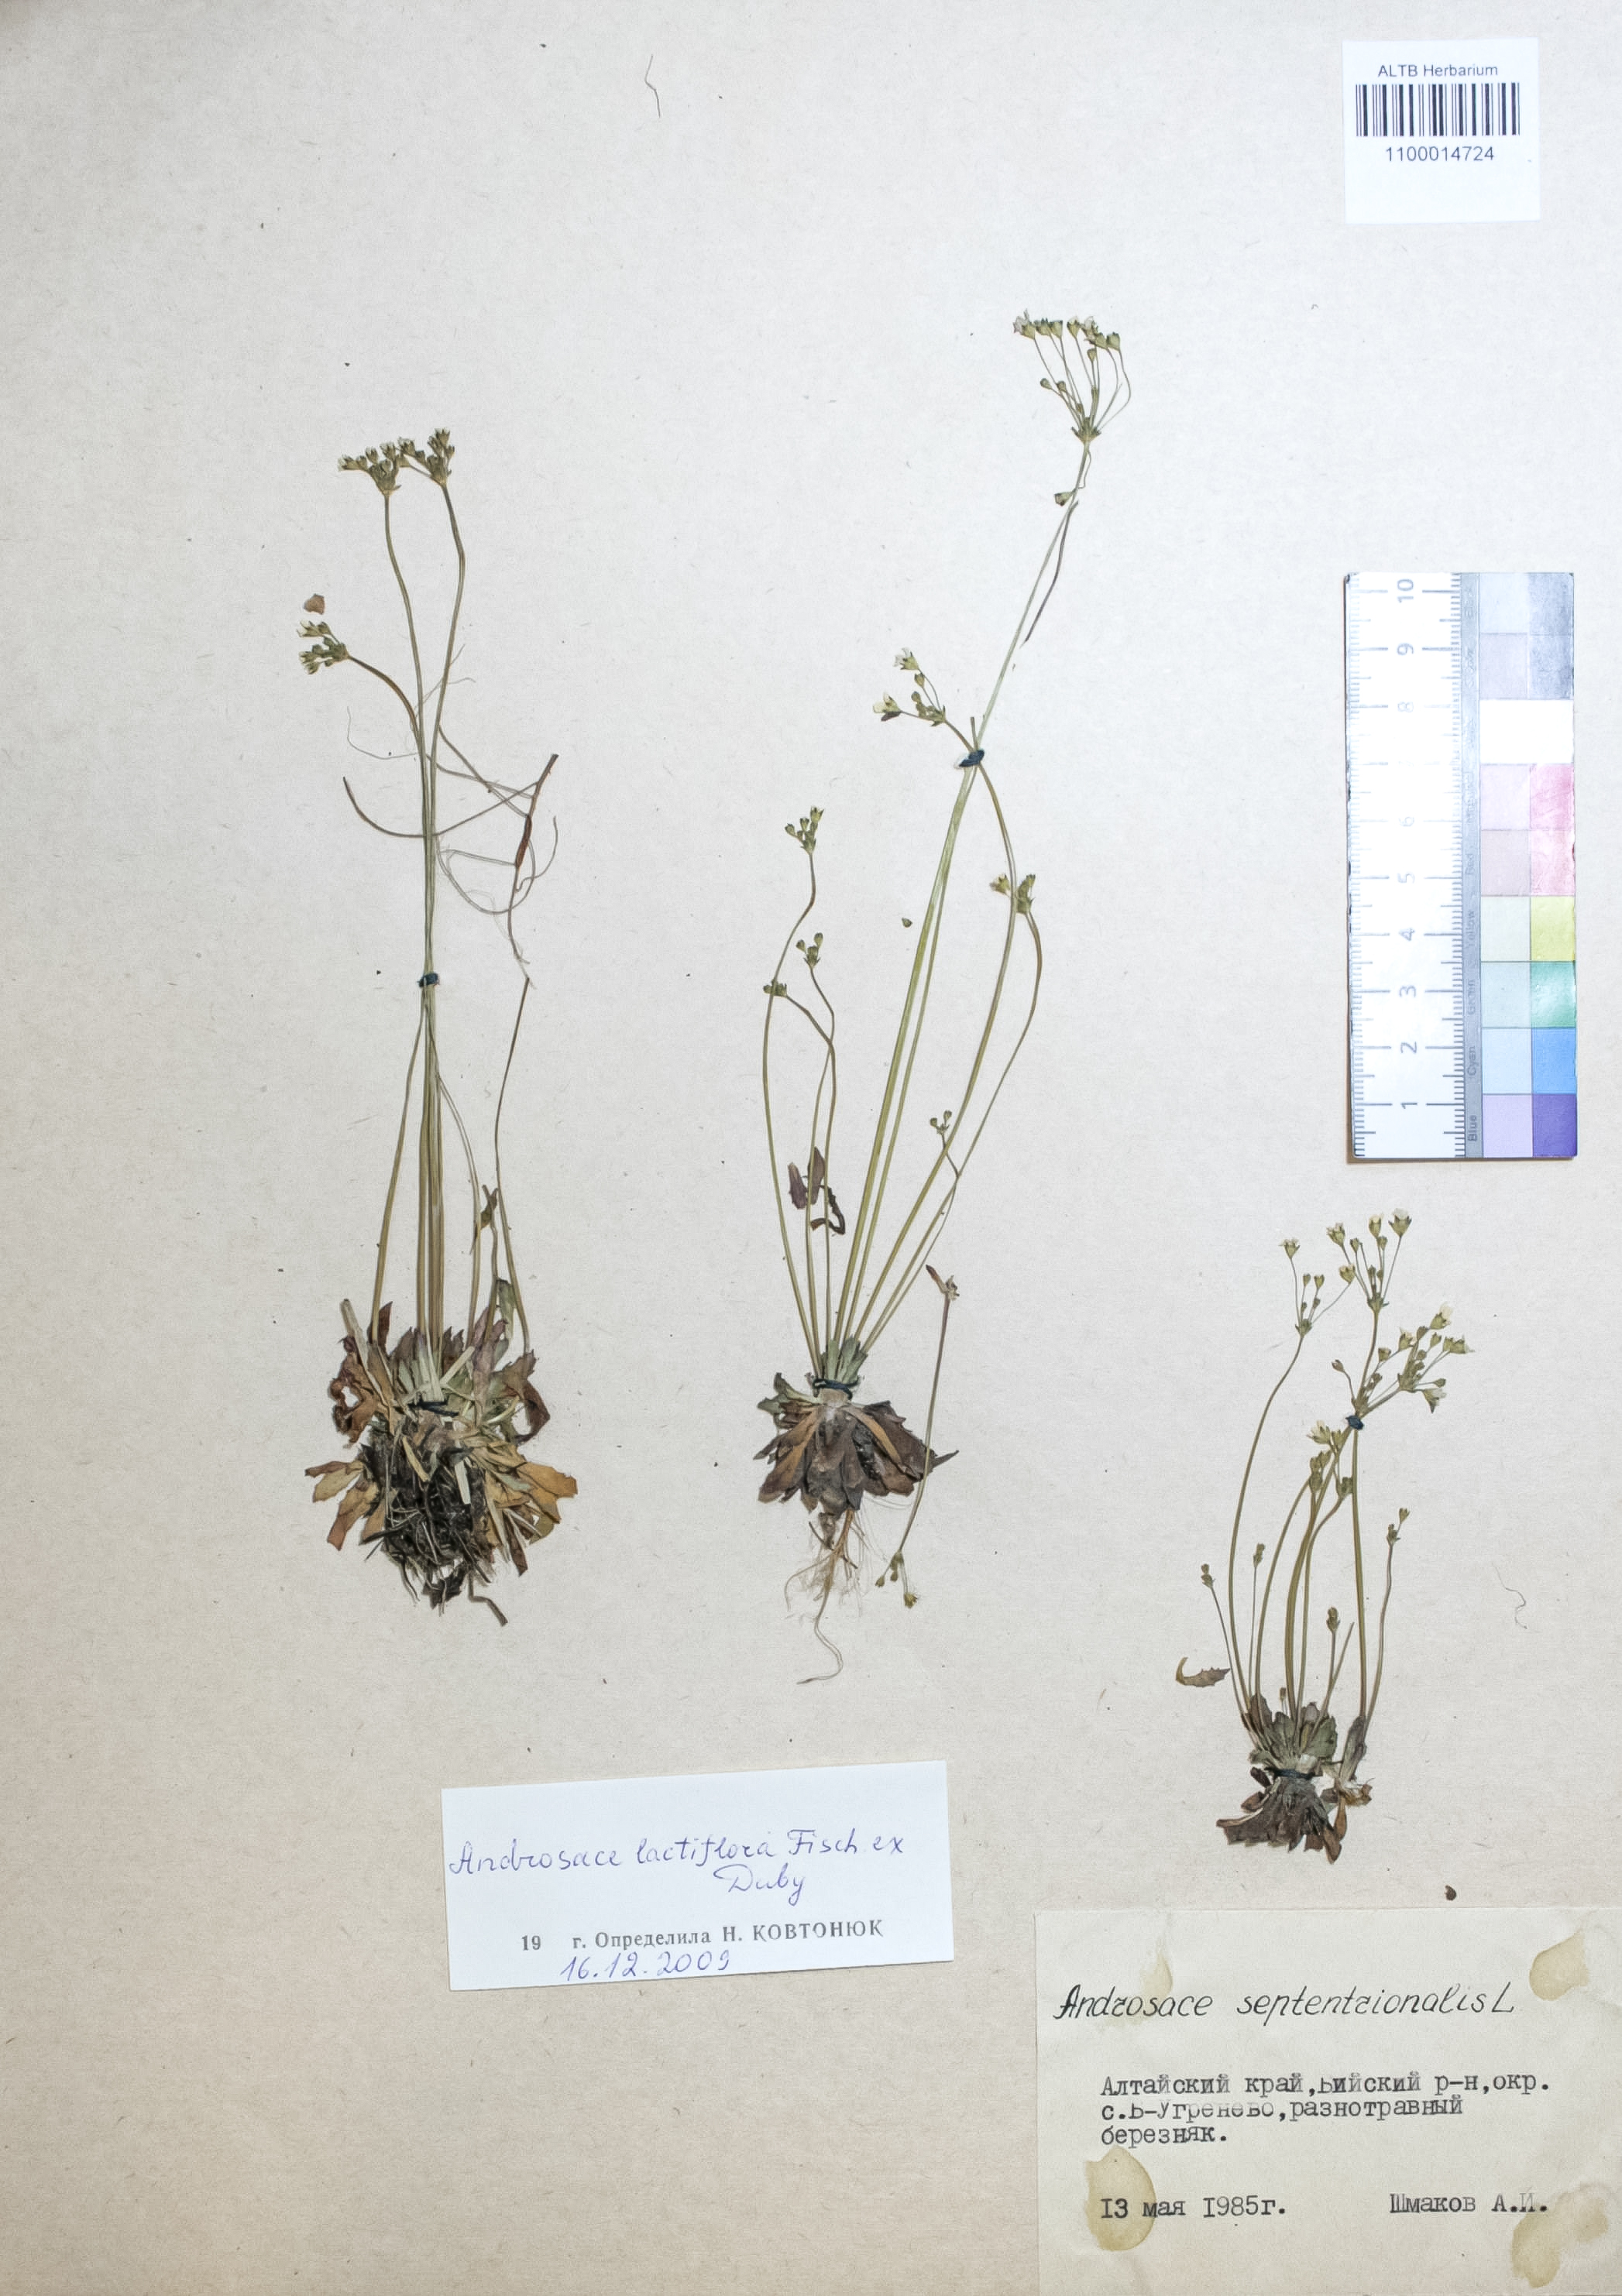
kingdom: Plantae
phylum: Tracheophyta
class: Magnoliopsida
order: Ericales
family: Primulaceae
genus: Androsace
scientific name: Androsace lactiflora
